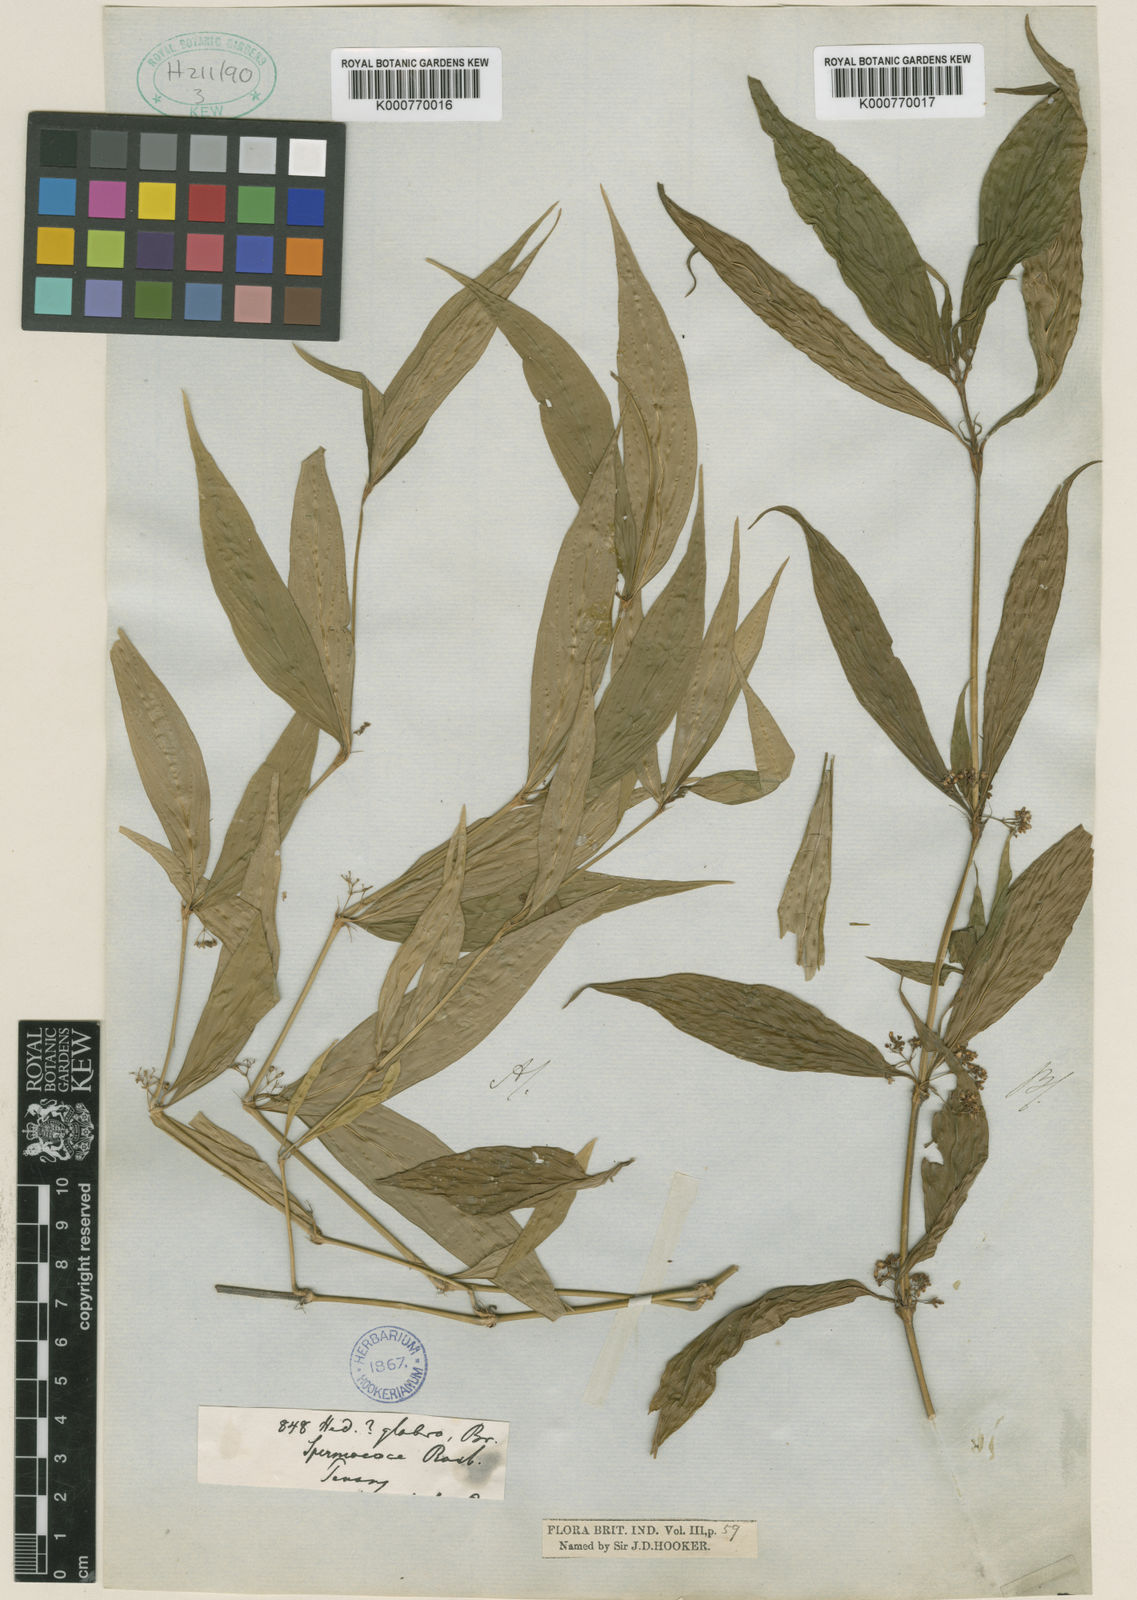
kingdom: Plantae
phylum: Tracheophyta
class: Magnoliopsida
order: Gentianales
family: Rubiaceae
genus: Exallage
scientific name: Exallage insularis
